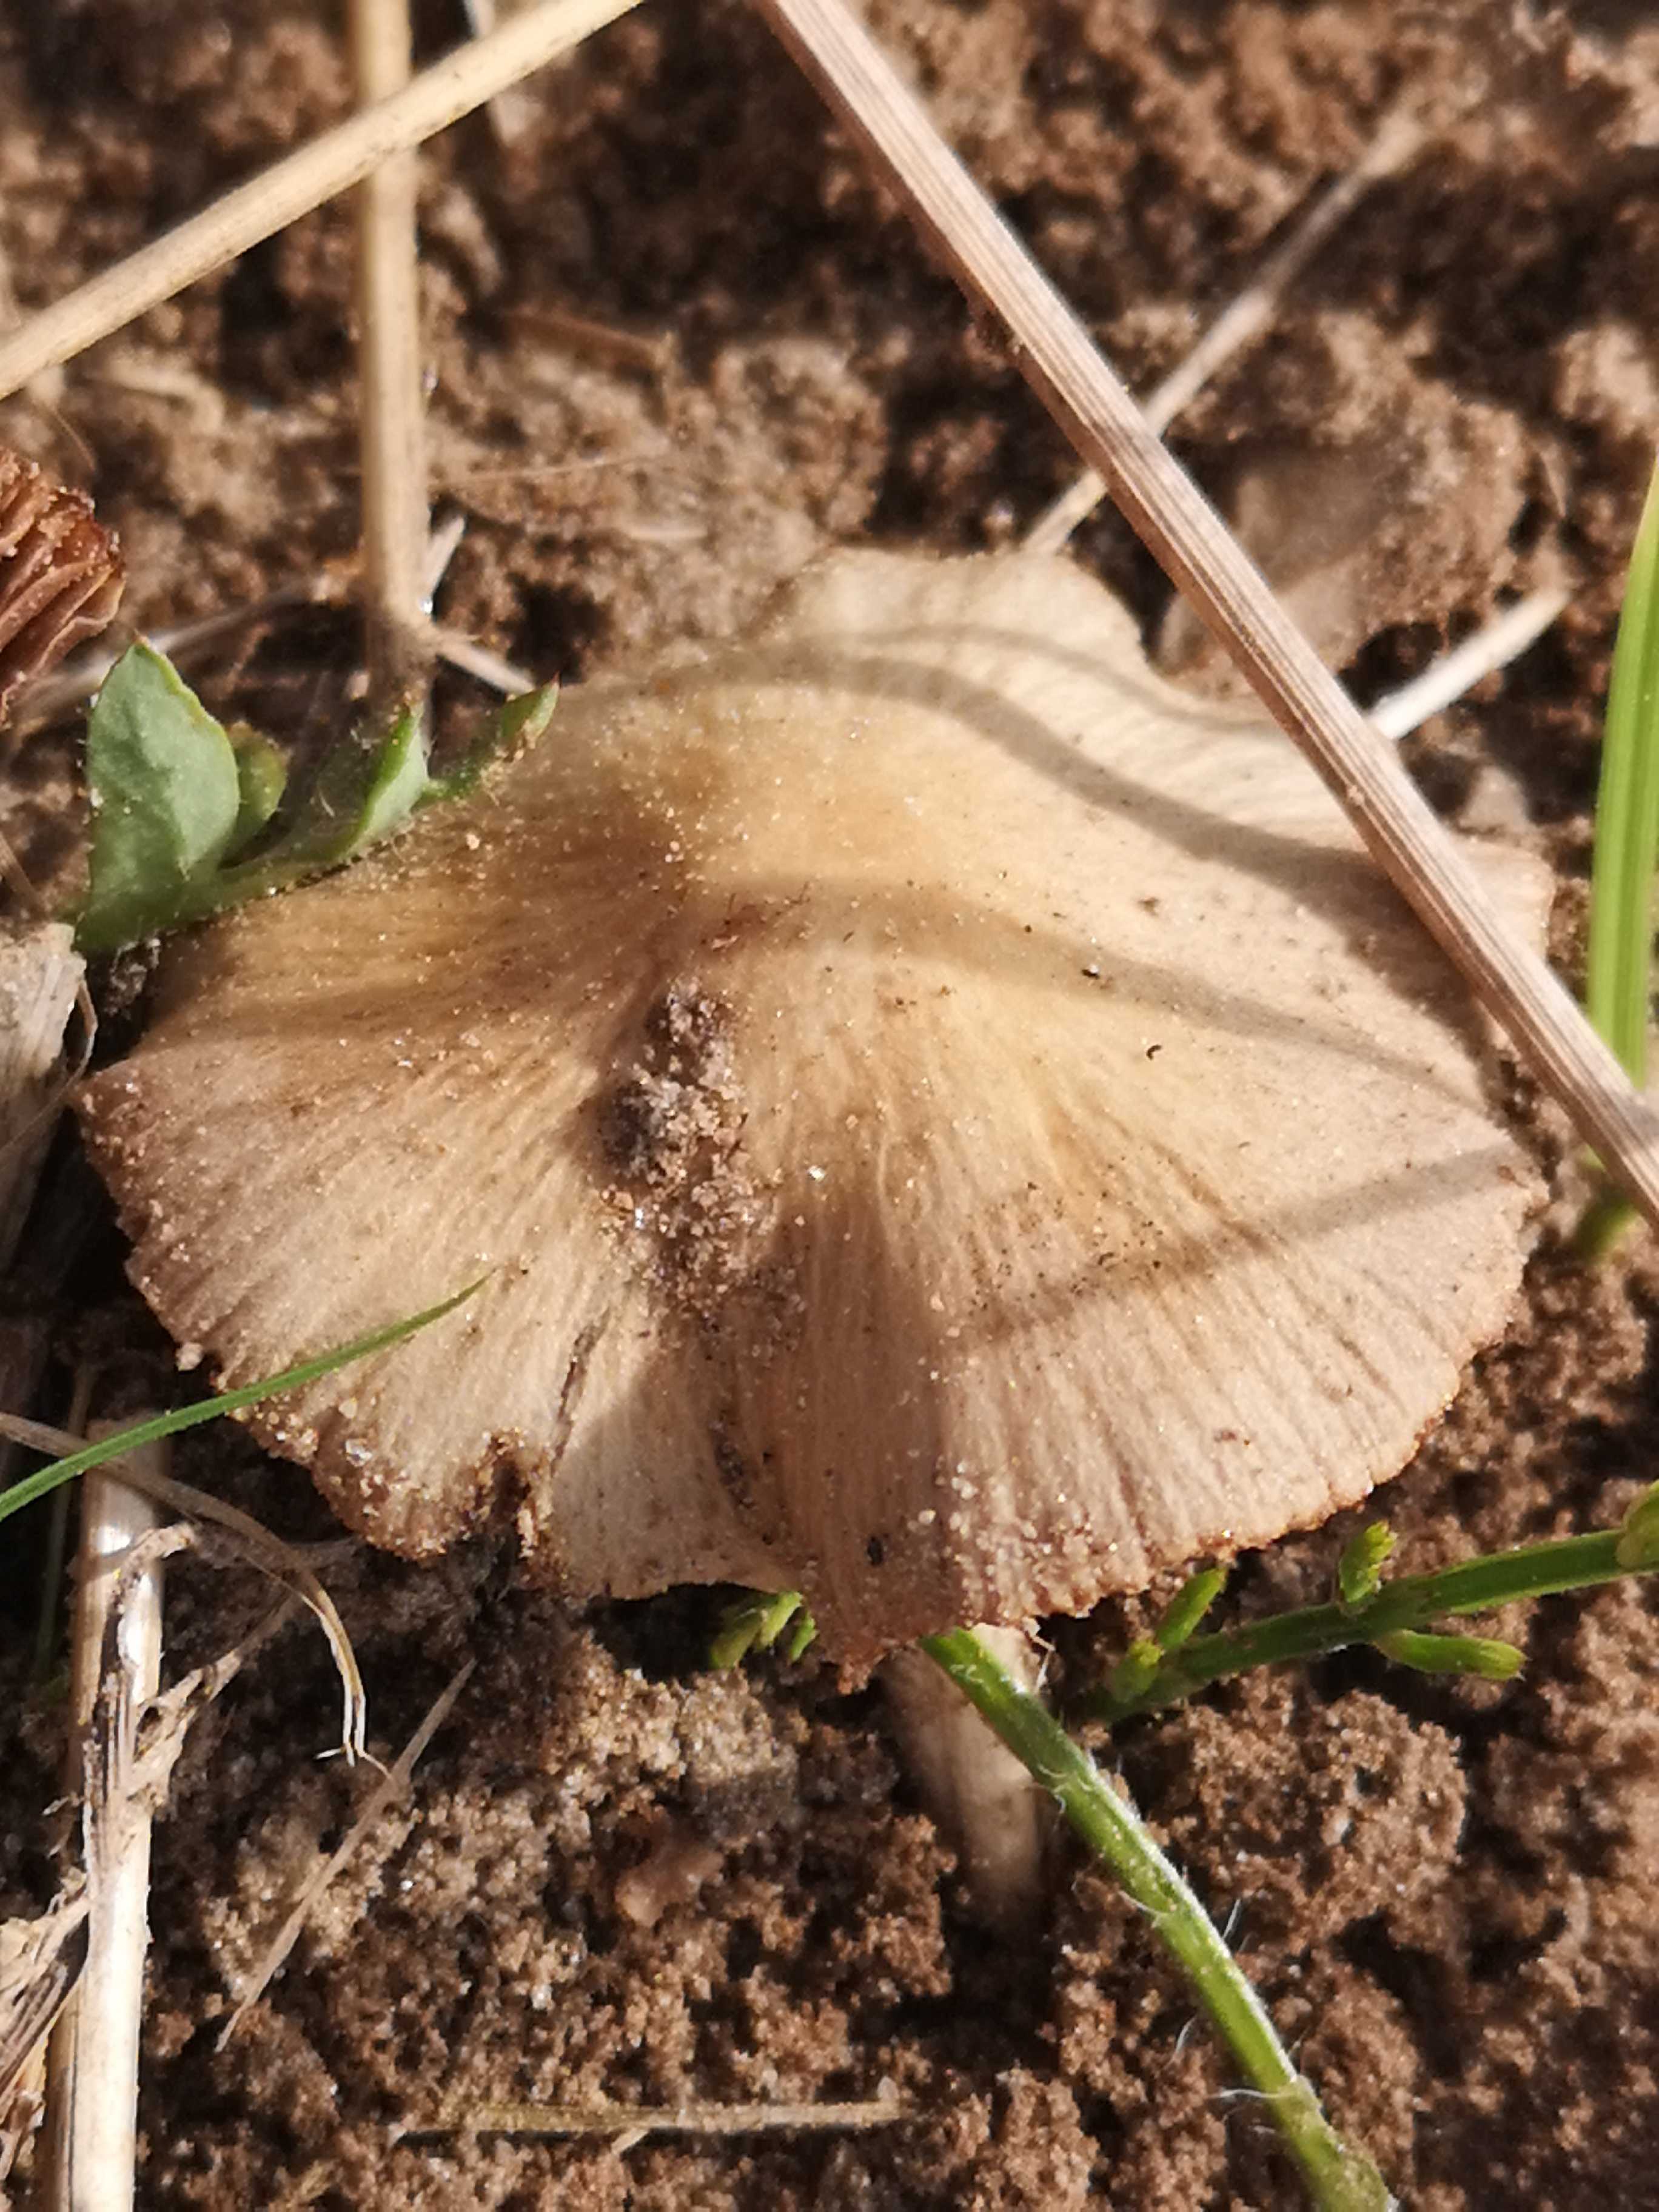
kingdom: Fungi
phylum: Basidiomycota
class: Agaricomycetes
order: Agaricales
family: Psathyrellaceae
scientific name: Psathyrellaceae
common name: mørkhatfamilien
